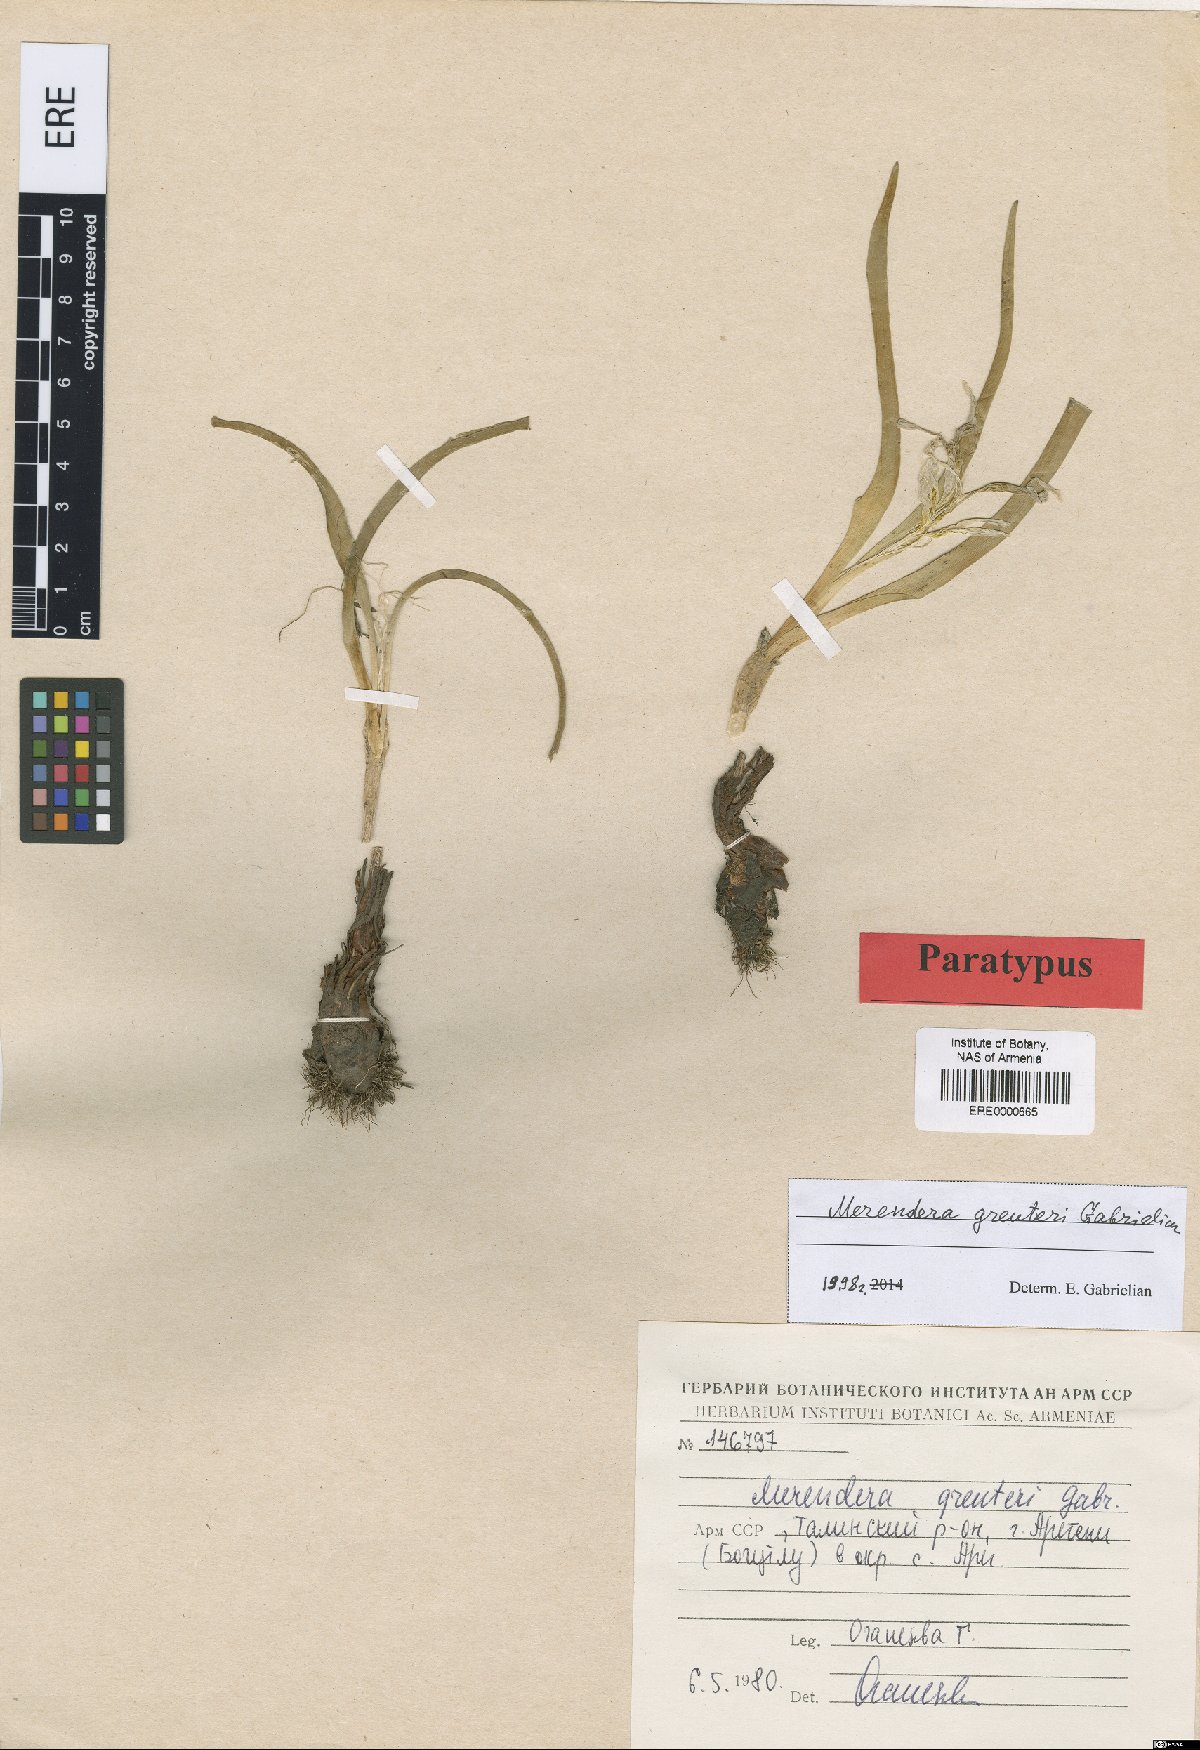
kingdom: Plantae
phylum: Tracheophyta
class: Liliopsida
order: Liliales
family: Colchicaceae
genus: Colchicum
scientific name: Colchicum trigynum
